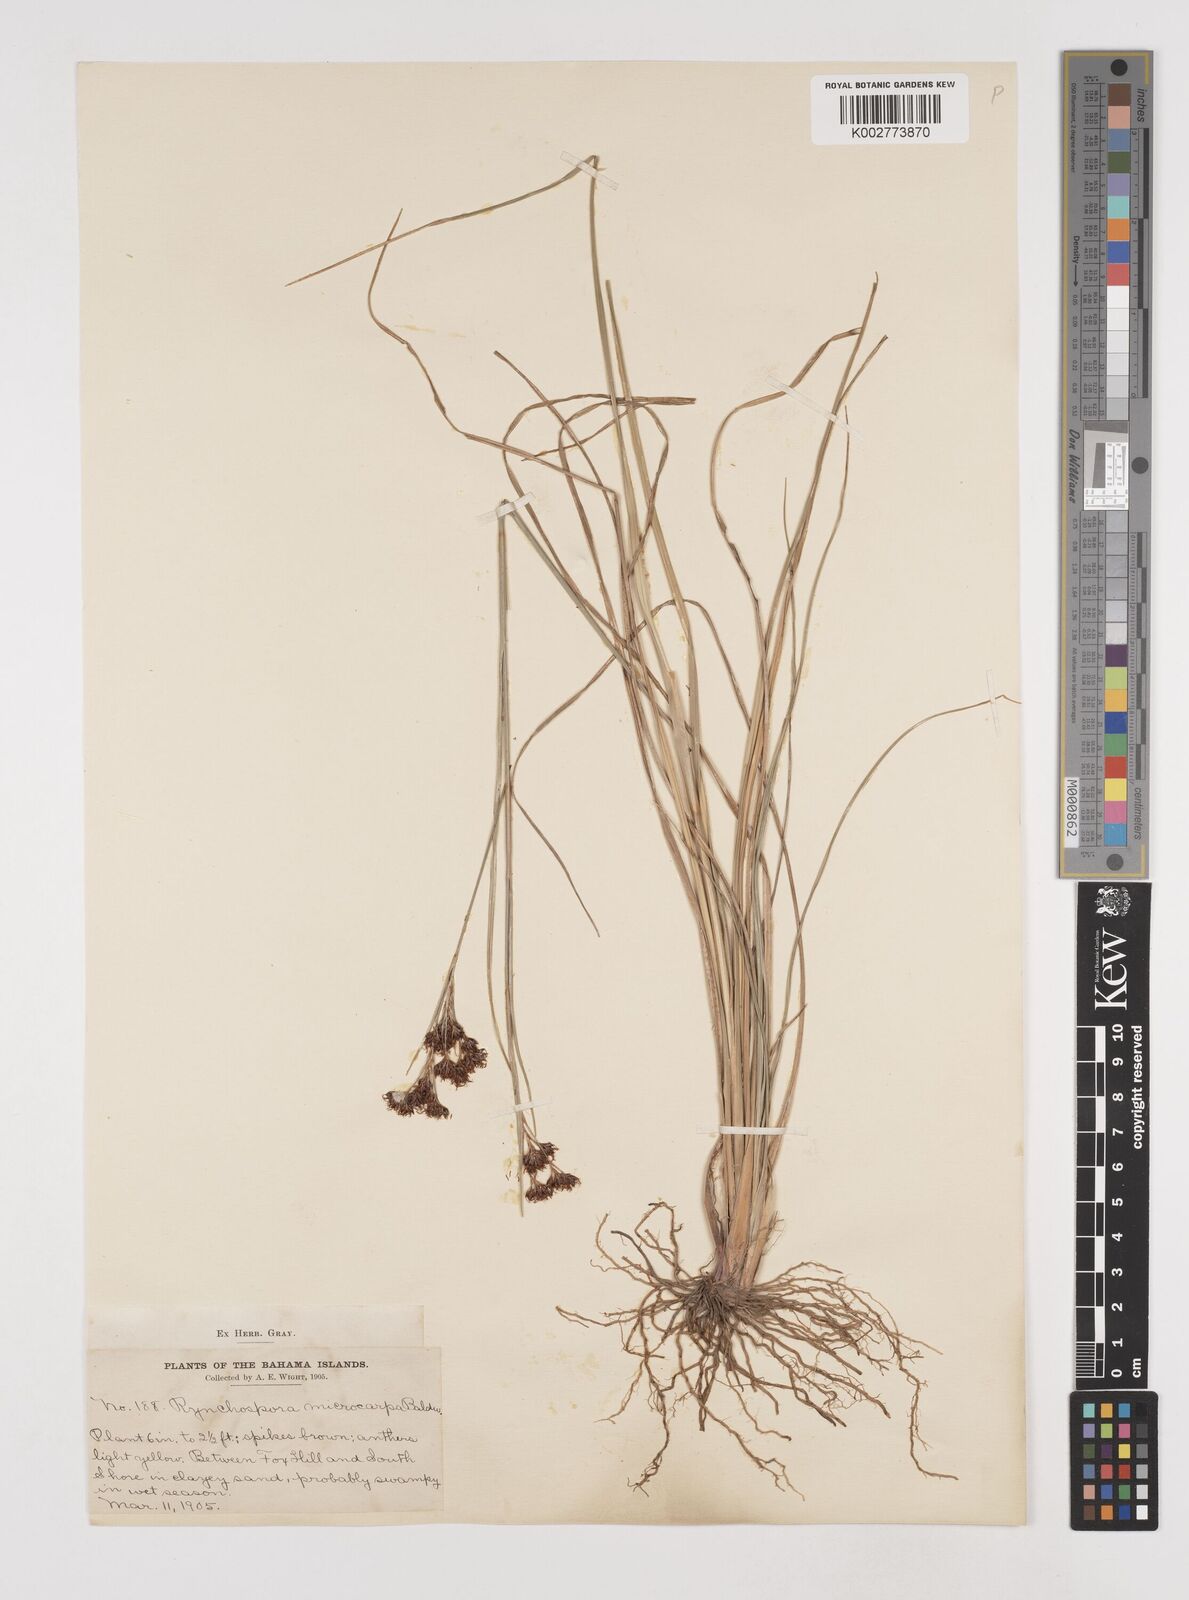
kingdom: Plantae
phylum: Tracheophyta
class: Liliopsida
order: Poales
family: Cyperaceae
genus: Rhynchospora
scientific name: Rhynchospora microcarpa
